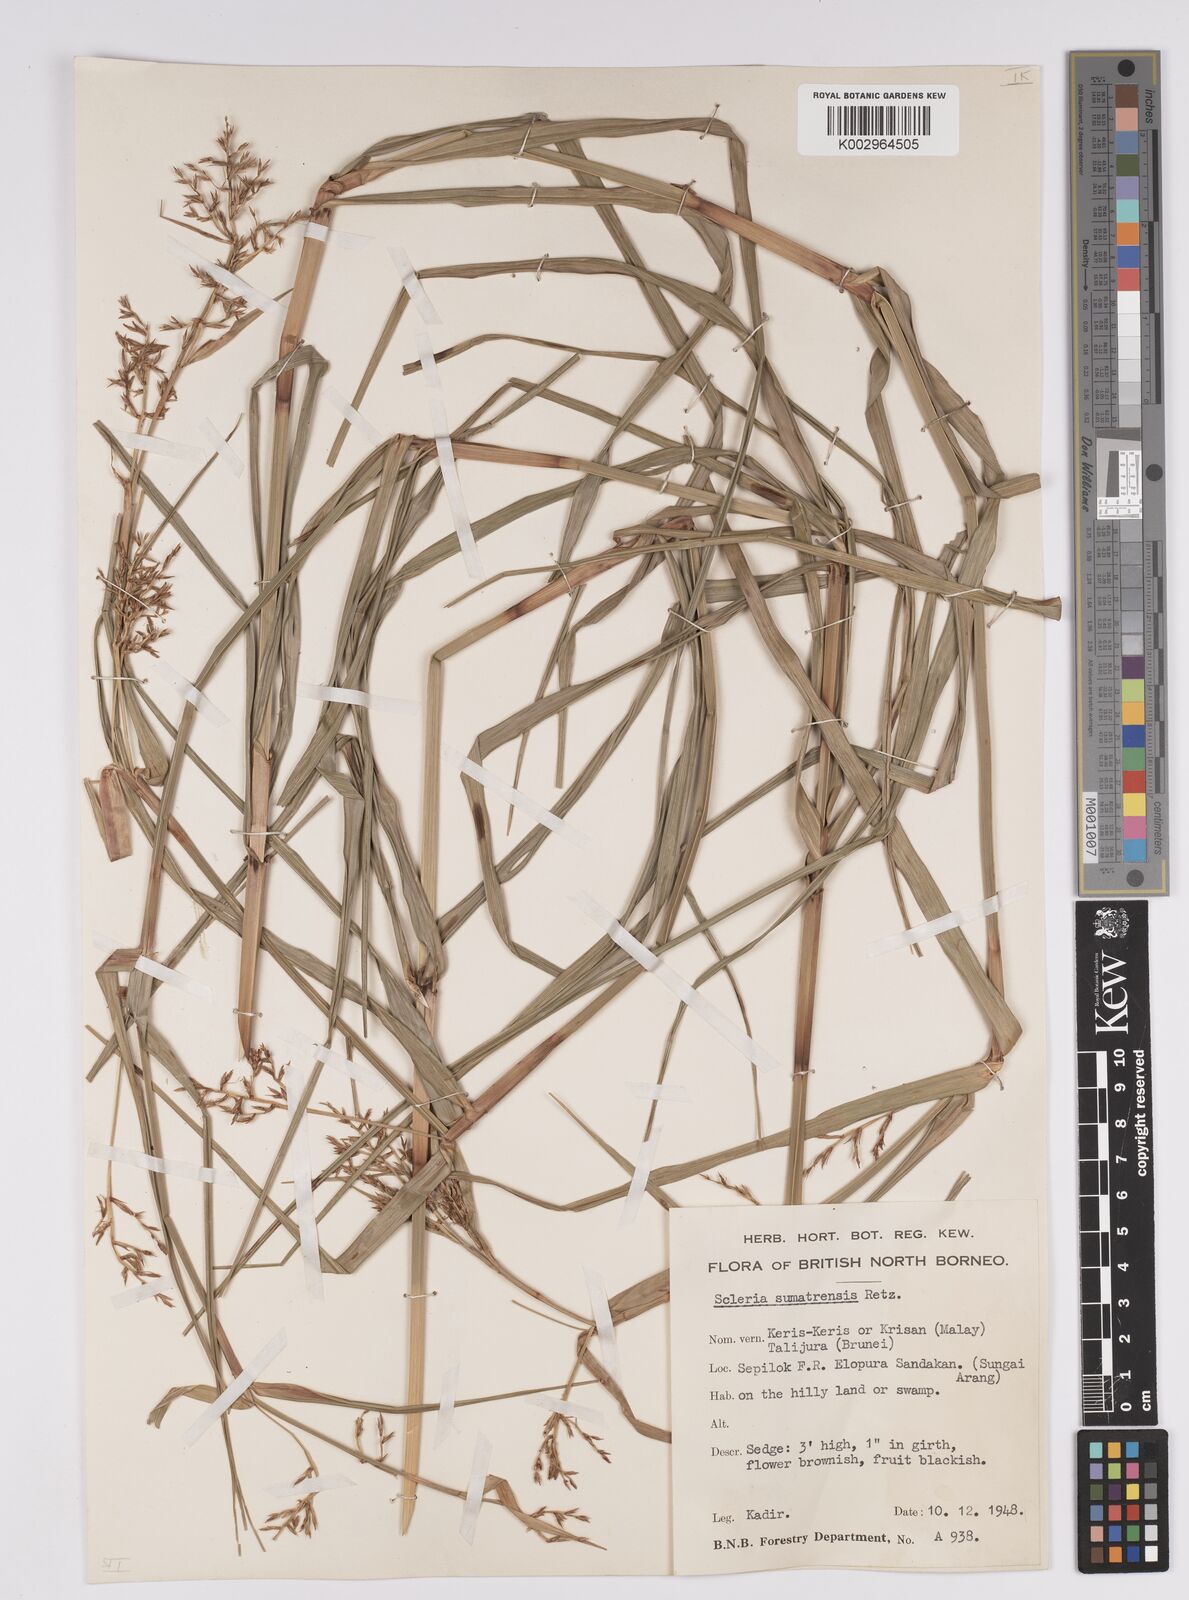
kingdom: Plantae
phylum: Tracheophyta
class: Liliopsida
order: Poales
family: Cyperaceae
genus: Scleria
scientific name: Scleria sumatrensis
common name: Sumatran scleria
